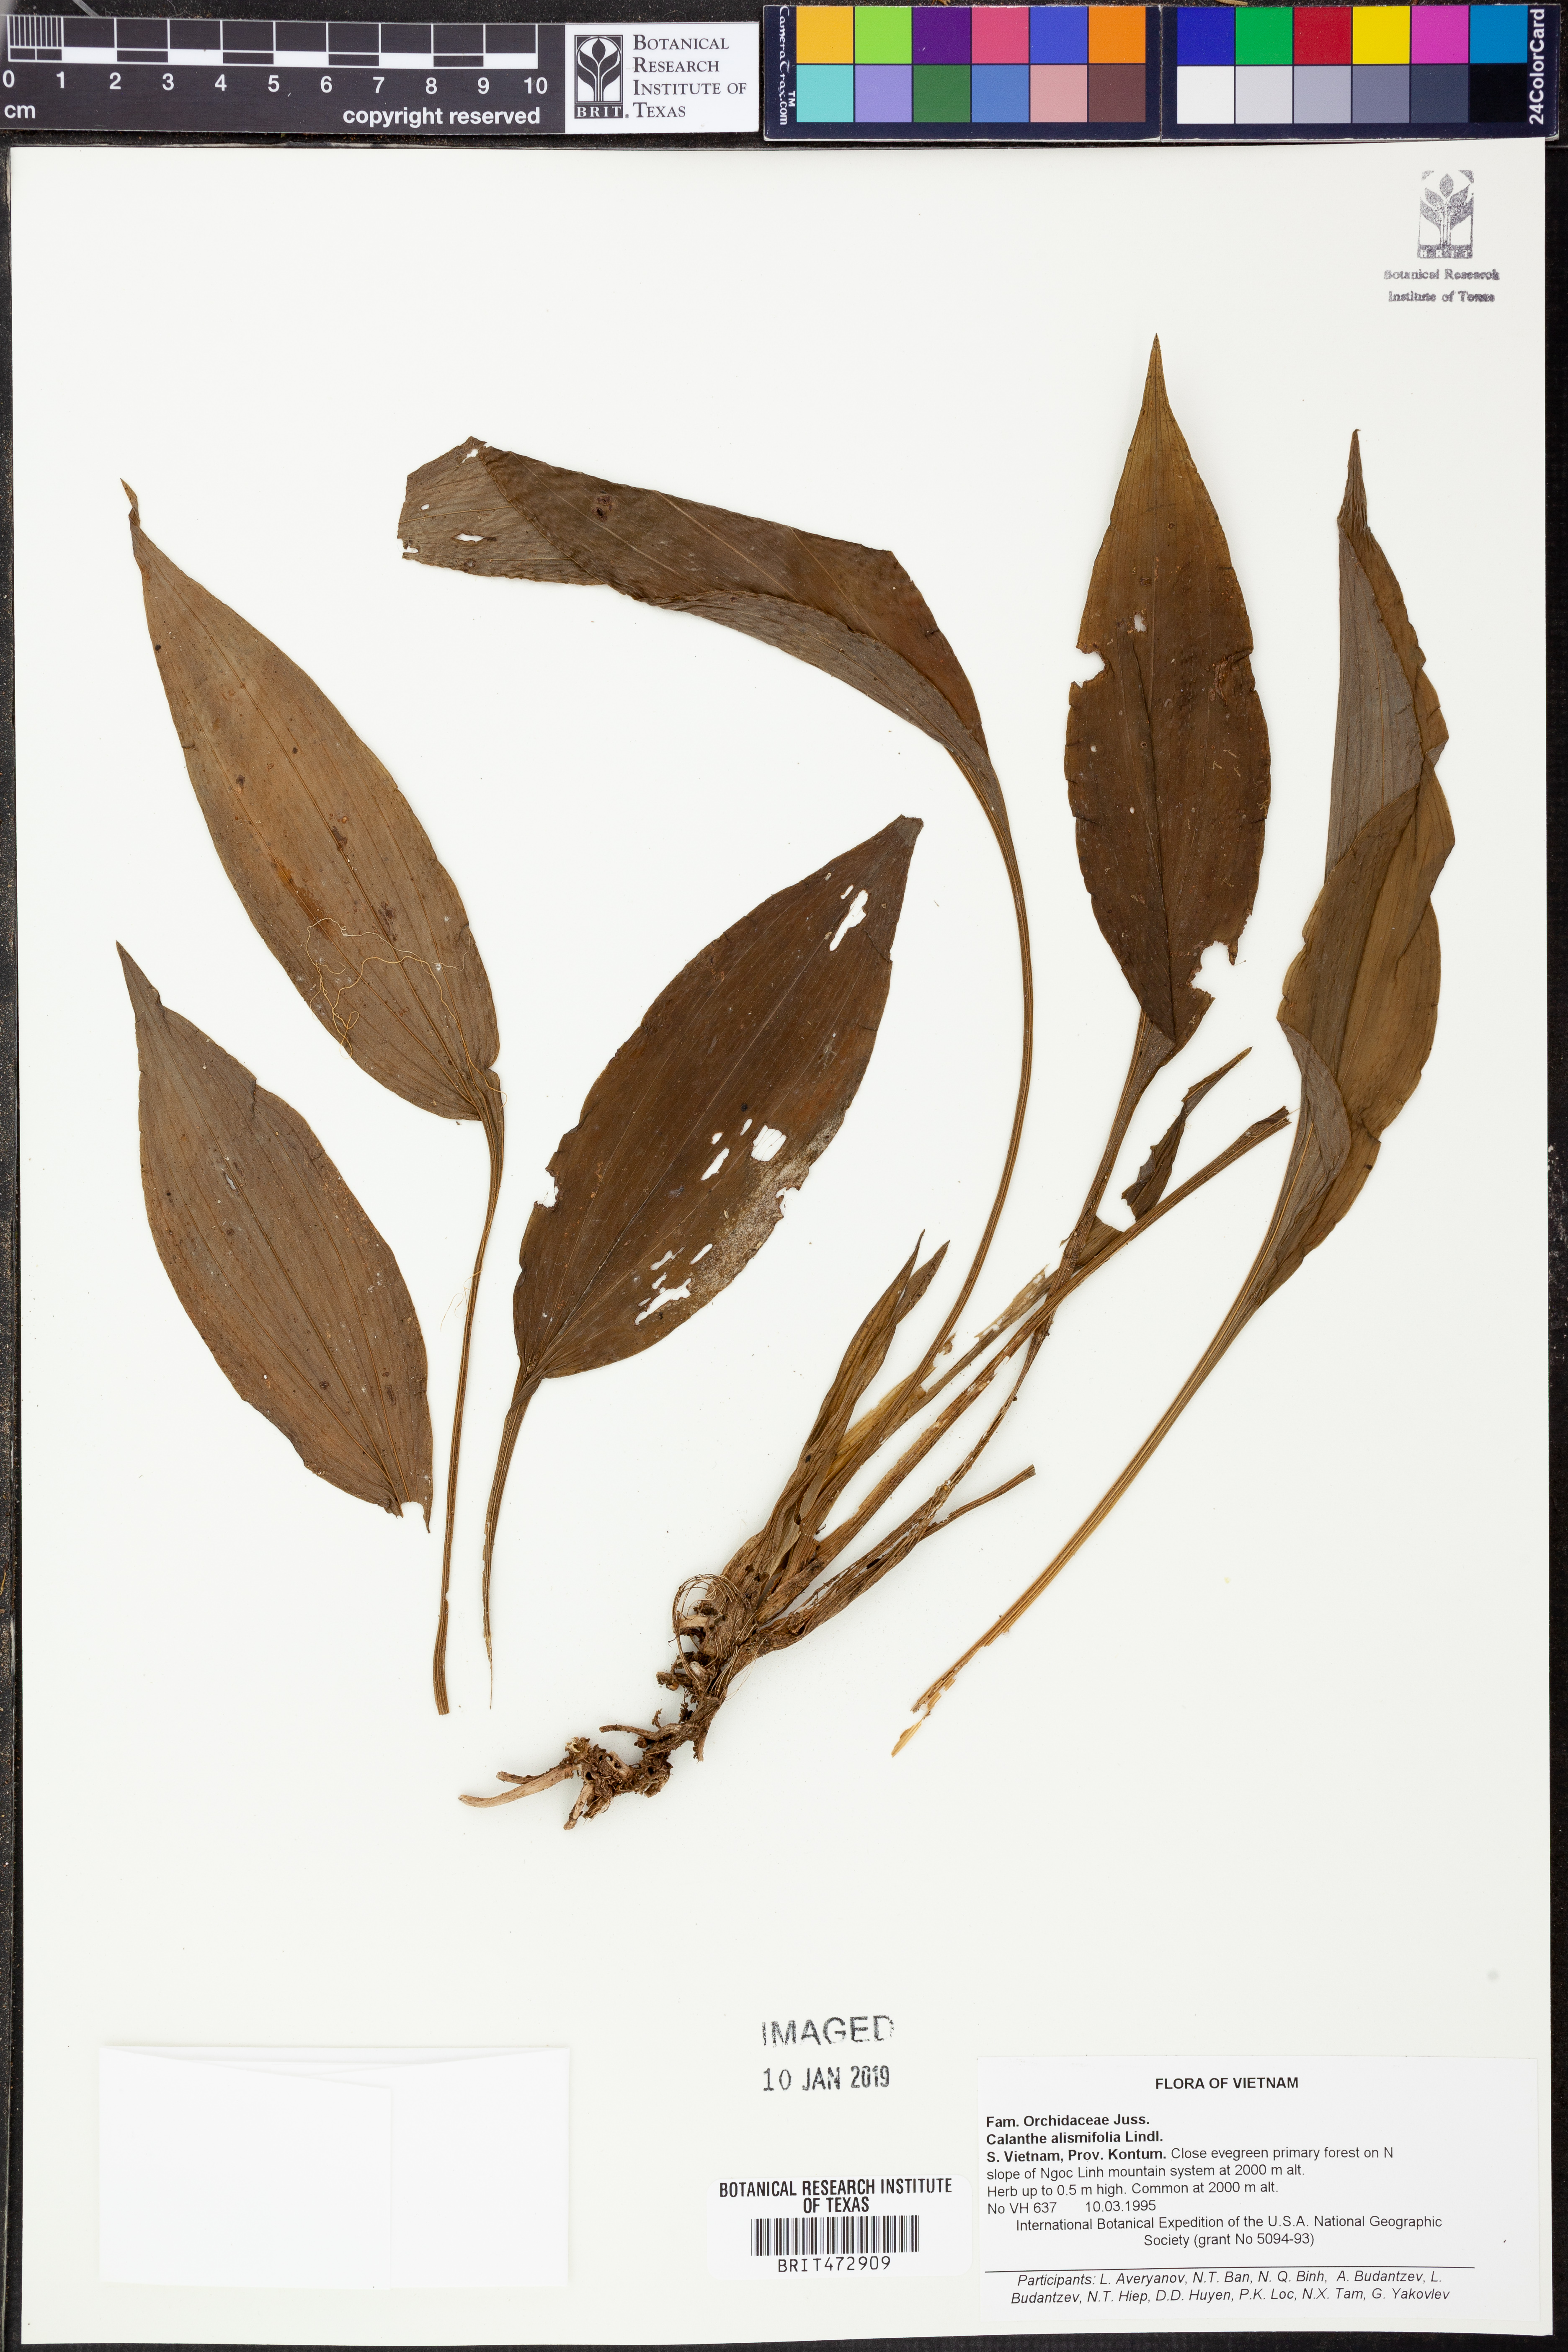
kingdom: Plantae
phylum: Tracheophyta
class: Liliopsida
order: Asparagales
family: Orchidaceae
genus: Calanthe
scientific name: Calanthe alismifolia
